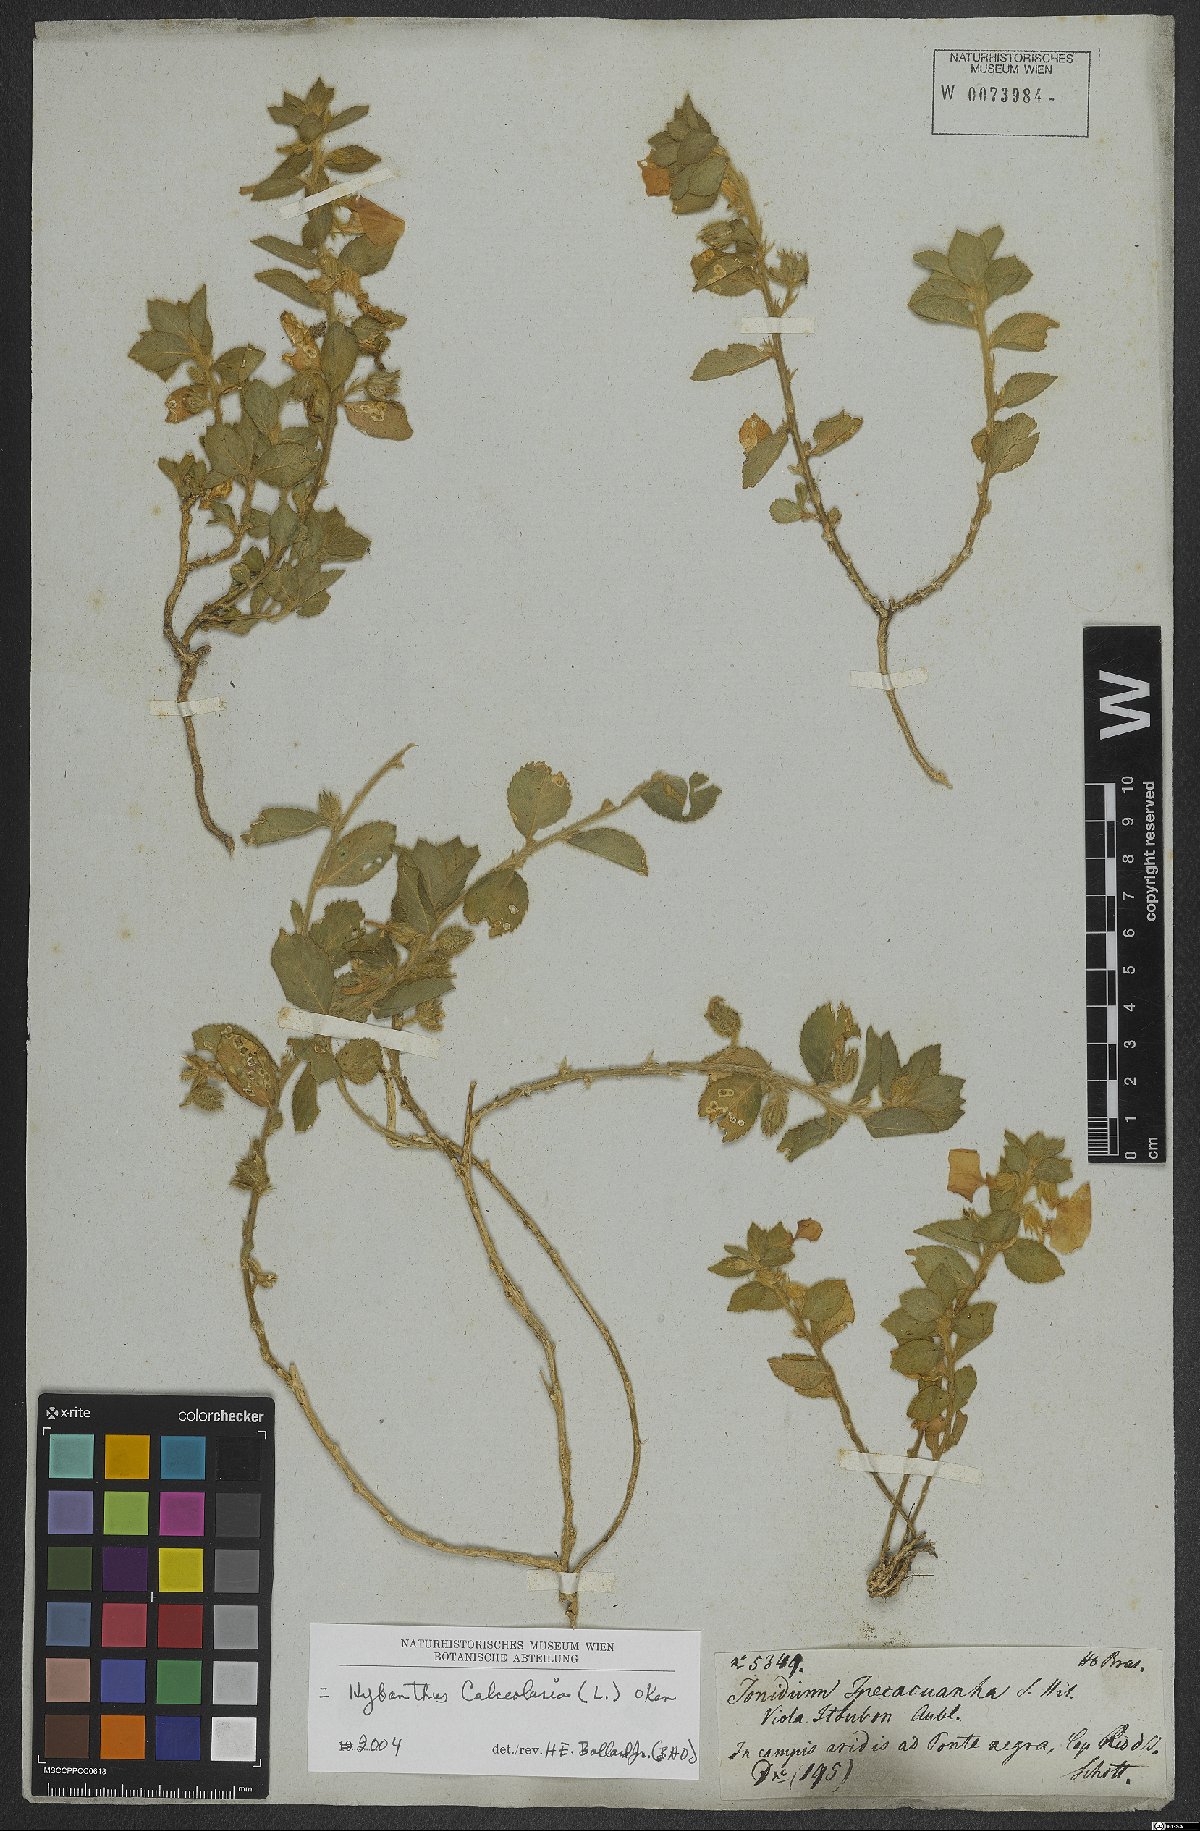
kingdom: Plantae
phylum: Tracheophyta
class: Magnoliopsida
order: Malpighiales
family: Violaceae
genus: Pombalia
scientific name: Pombalia calceolaria
